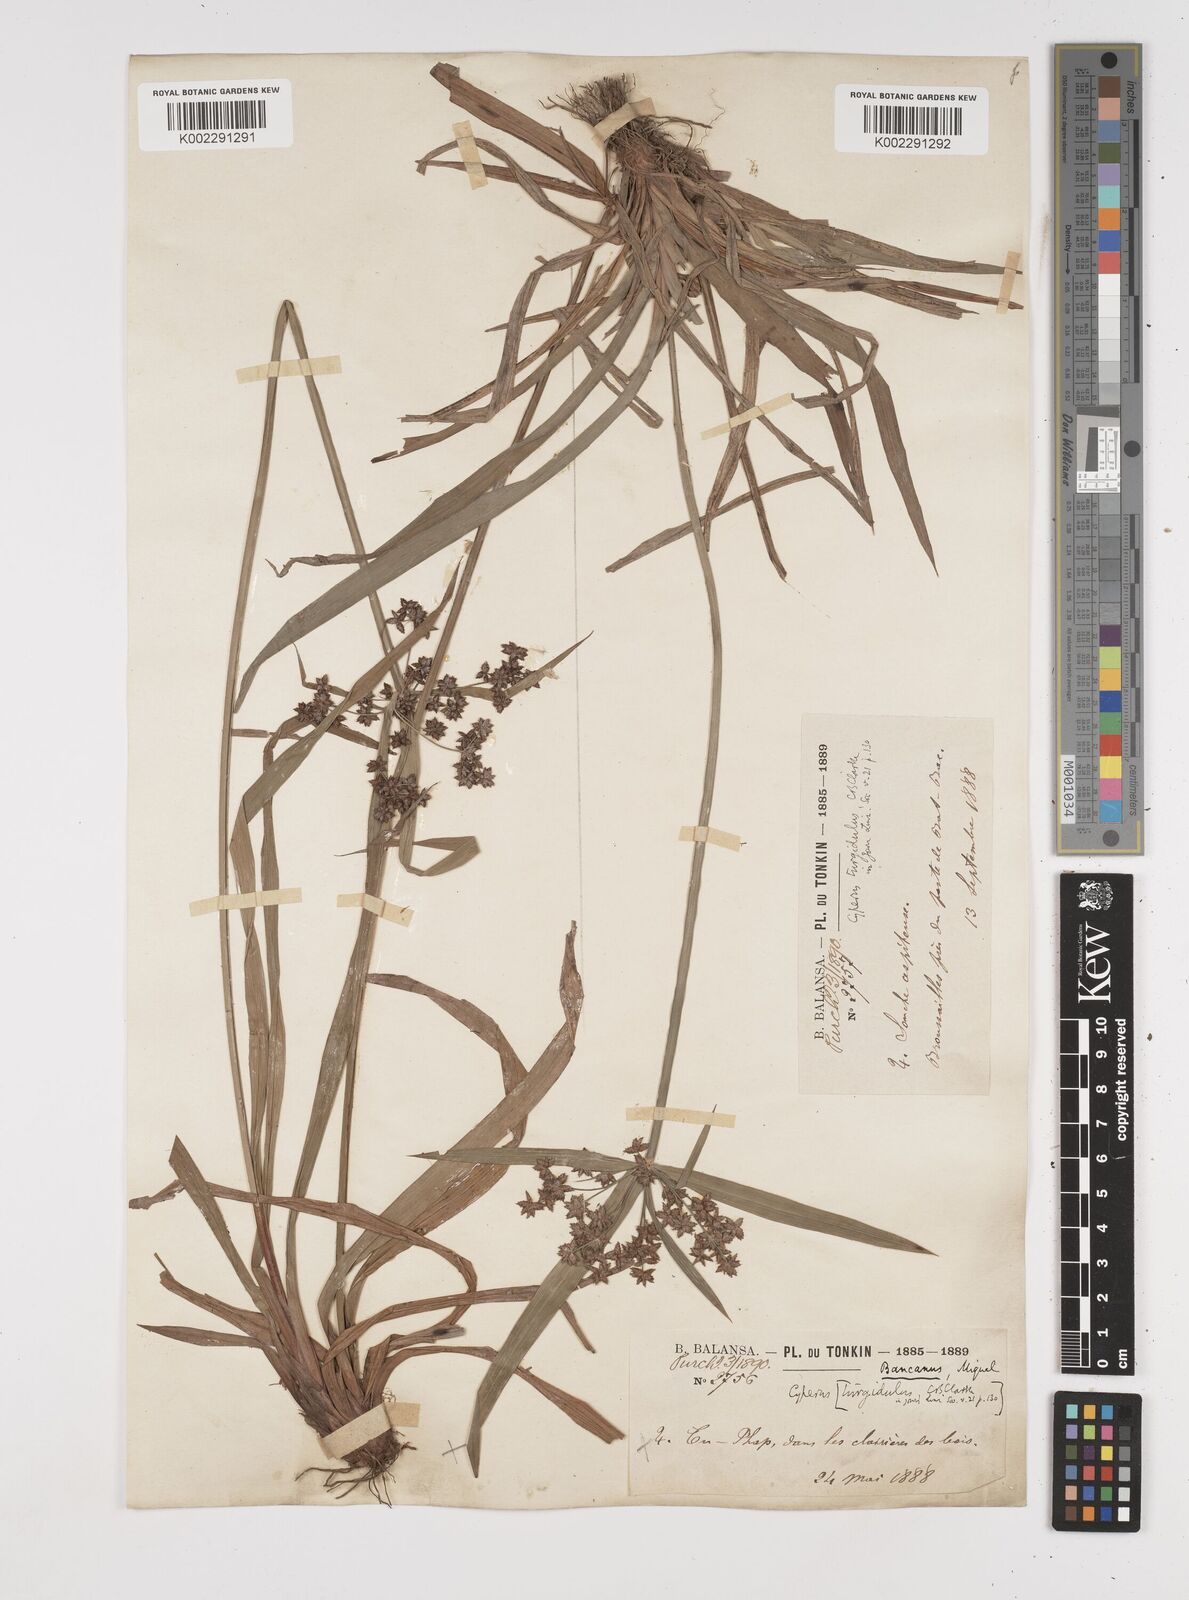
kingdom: Plantae
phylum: Tracheophyta
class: Liliopsida
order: Poales
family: Cyperaceae
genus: Cyperus
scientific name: Cyperus trialatus
